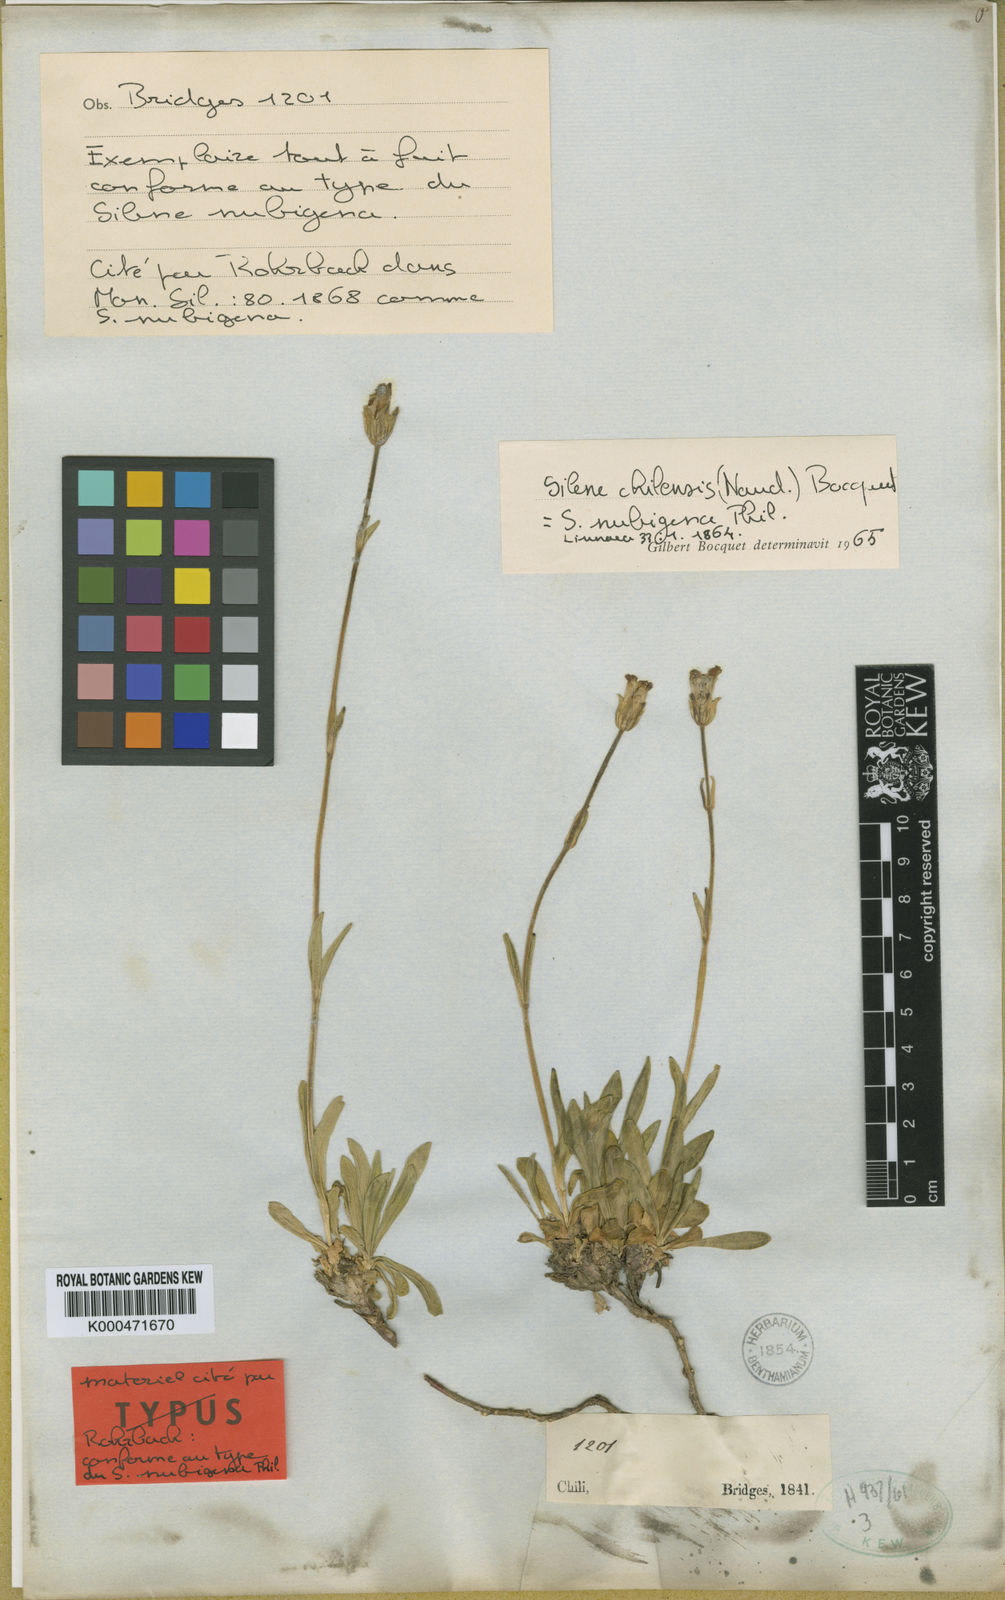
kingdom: Plantae
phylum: Tracheophyta
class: Magnoliopsida
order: Caryophyllales
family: Caryophyllaceae
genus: Silene
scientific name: Silene chilensis
